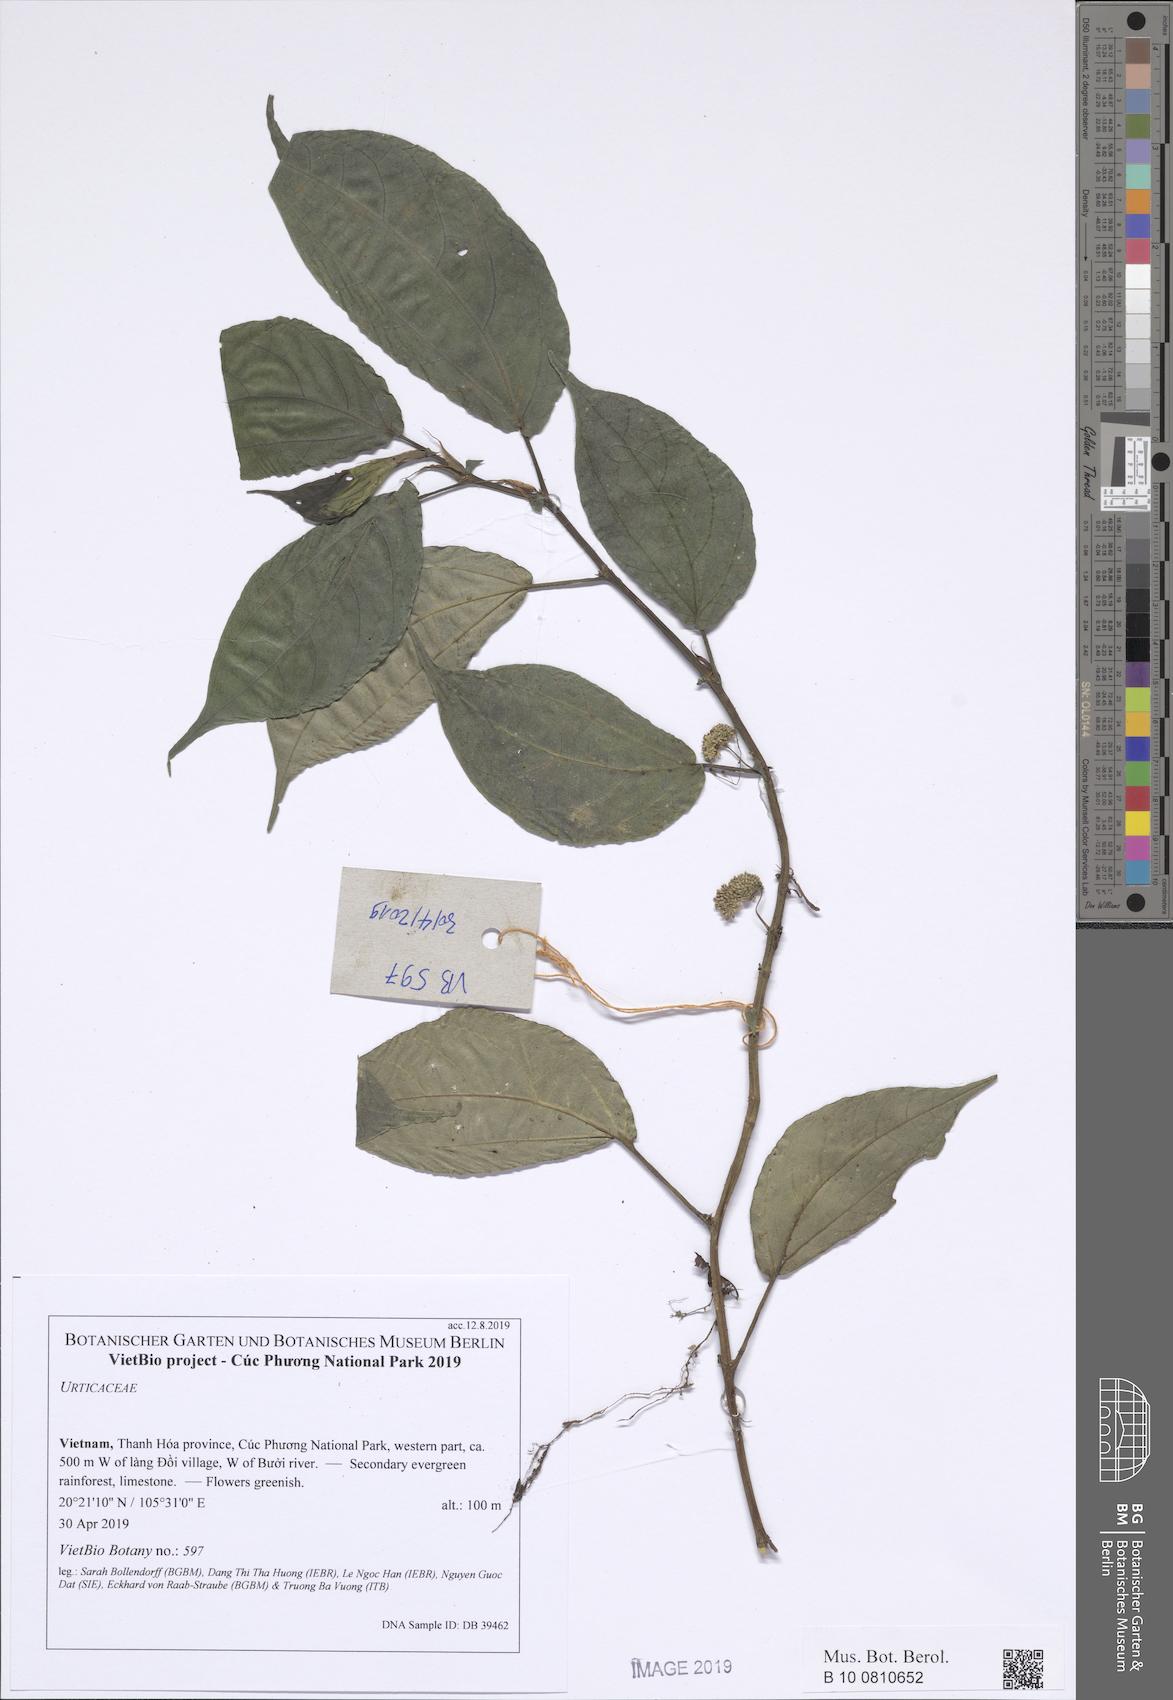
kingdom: Plantae
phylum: Tracheophyta
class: Magnoliopsida
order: Rosales
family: Urticaceae
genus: Pellionia
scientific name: Pellionia cristulata
